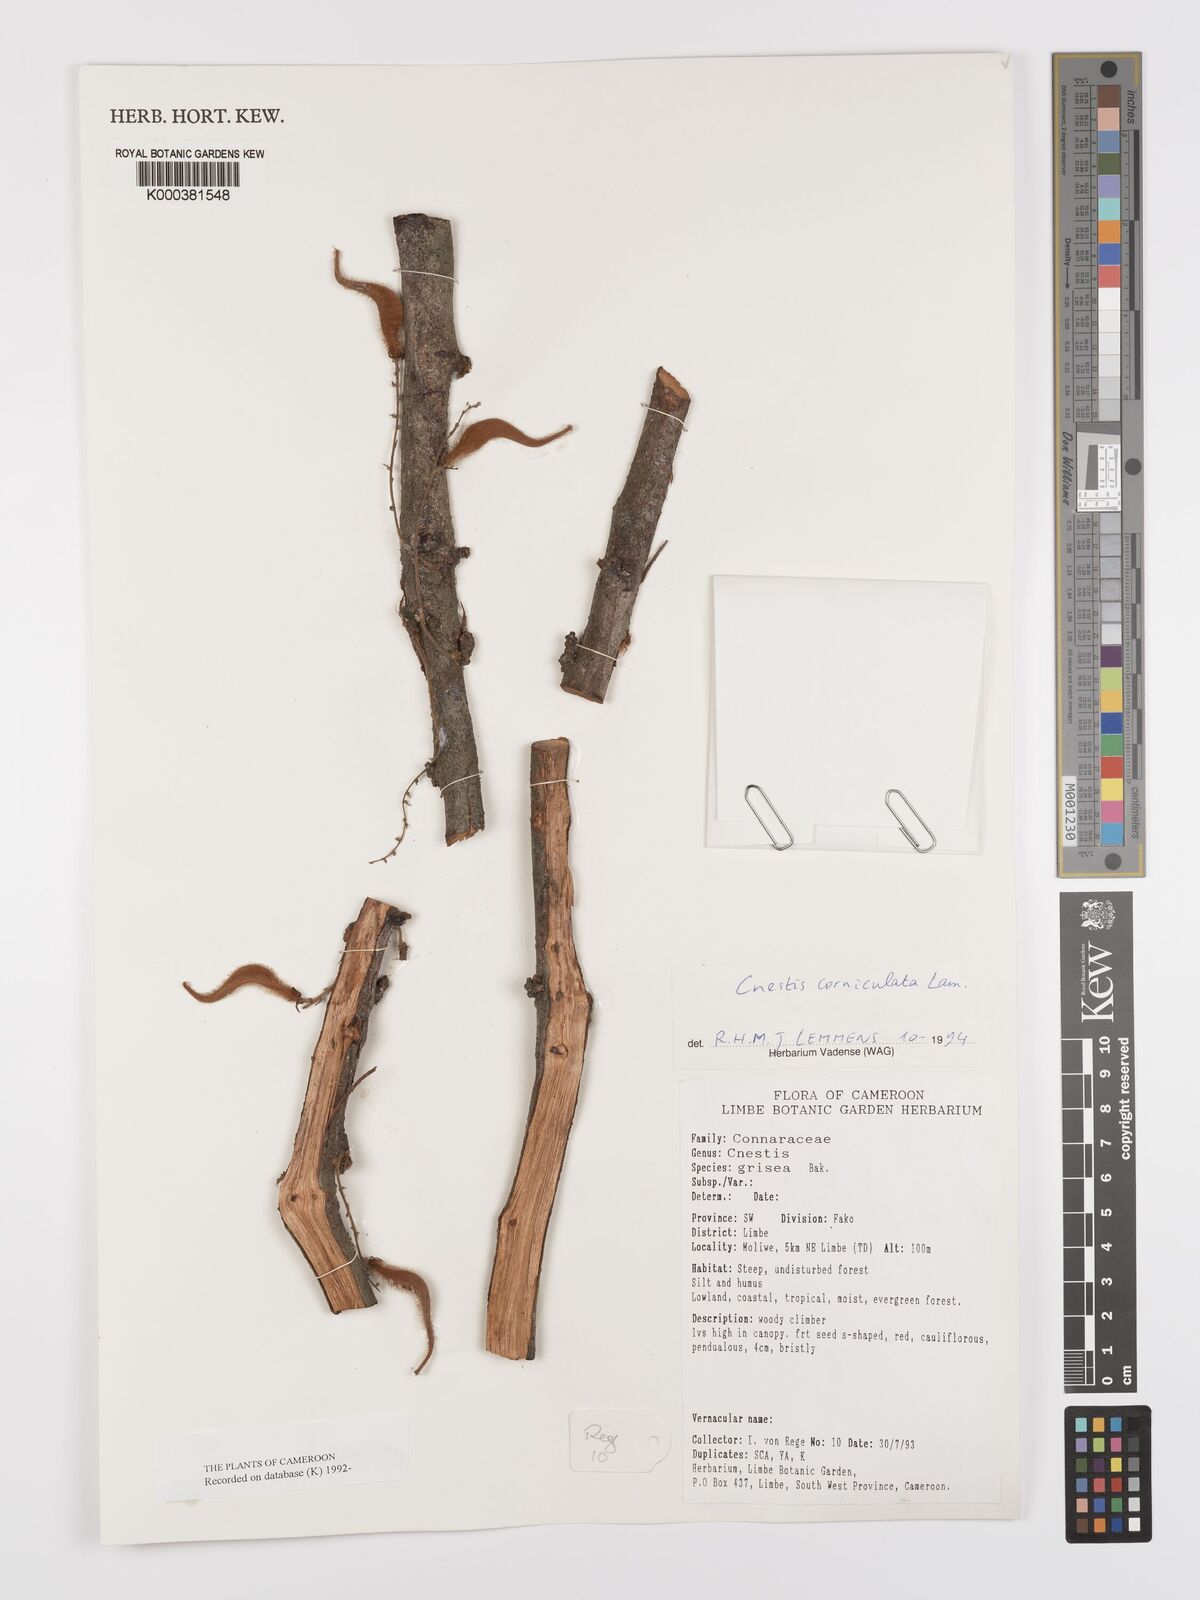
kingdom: Plantae
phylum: Tracheophyta
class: Magnoliopsida
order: Oxalidales
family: Connaraceae
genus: Cnestis
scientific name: Cnestis corniculata
